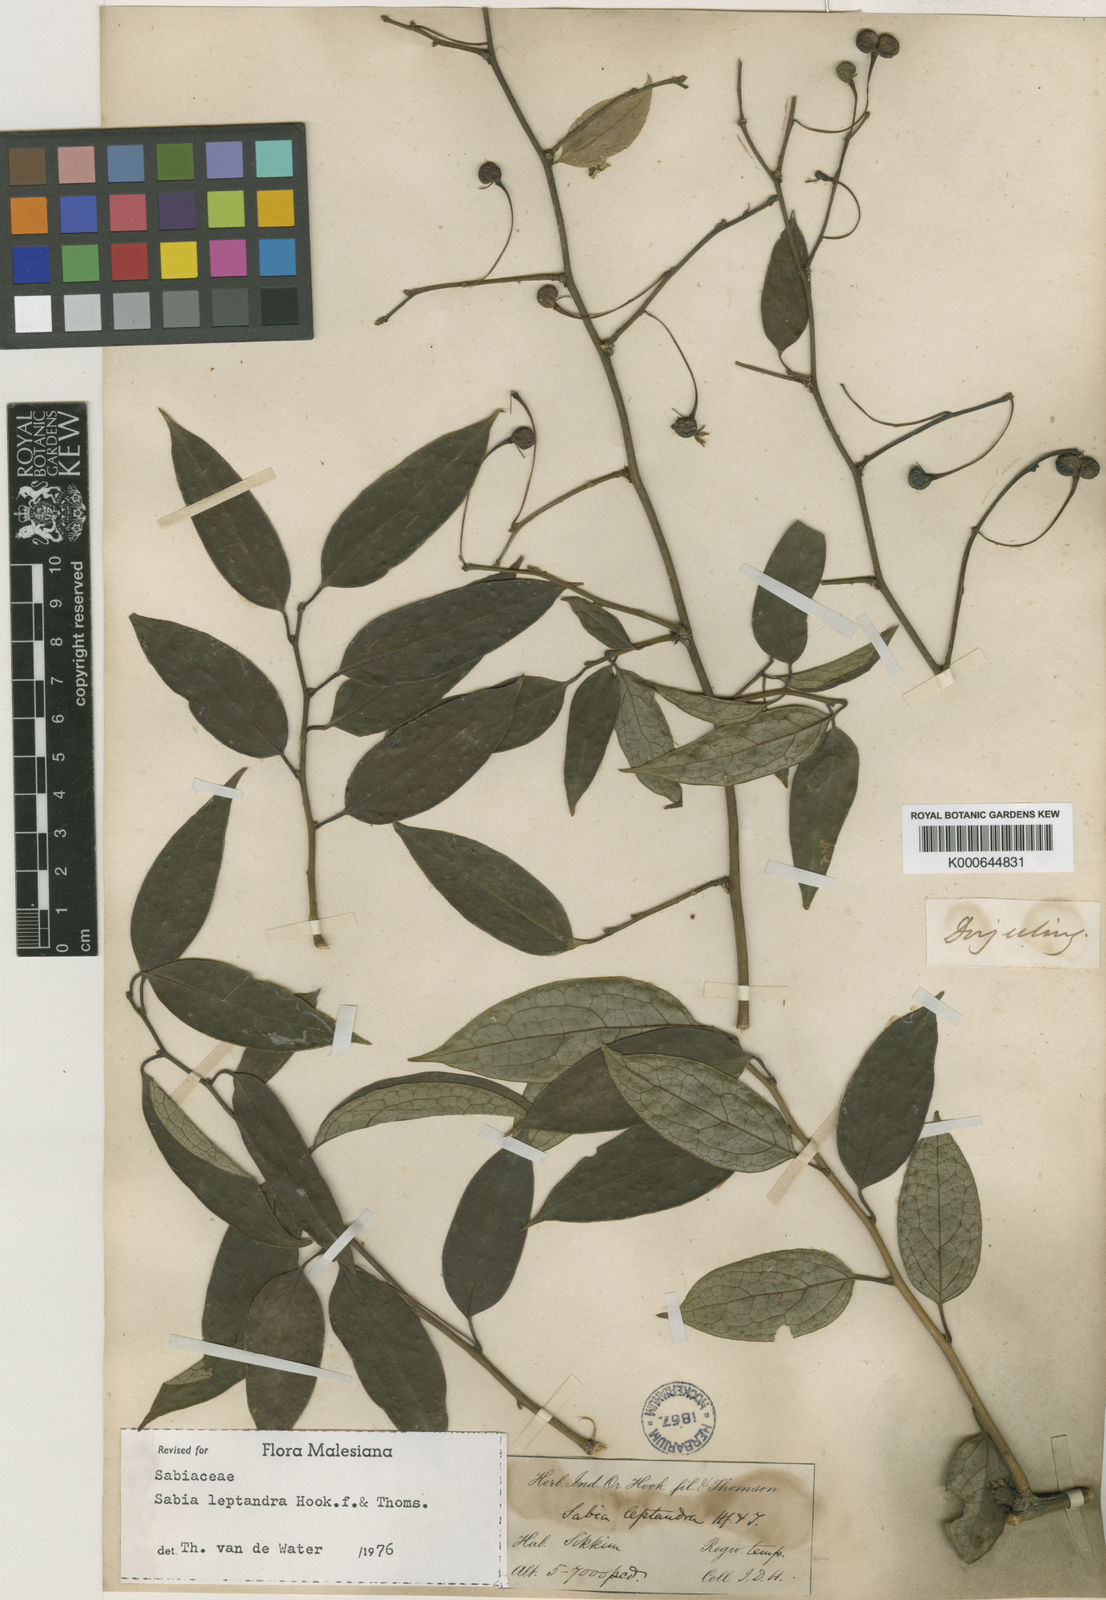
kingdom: Plantae
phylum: Tracheophyta
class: Magnoliopsida
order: Proteales
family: Sabiaceae
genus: Sabia
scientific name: Sabia campanulata
